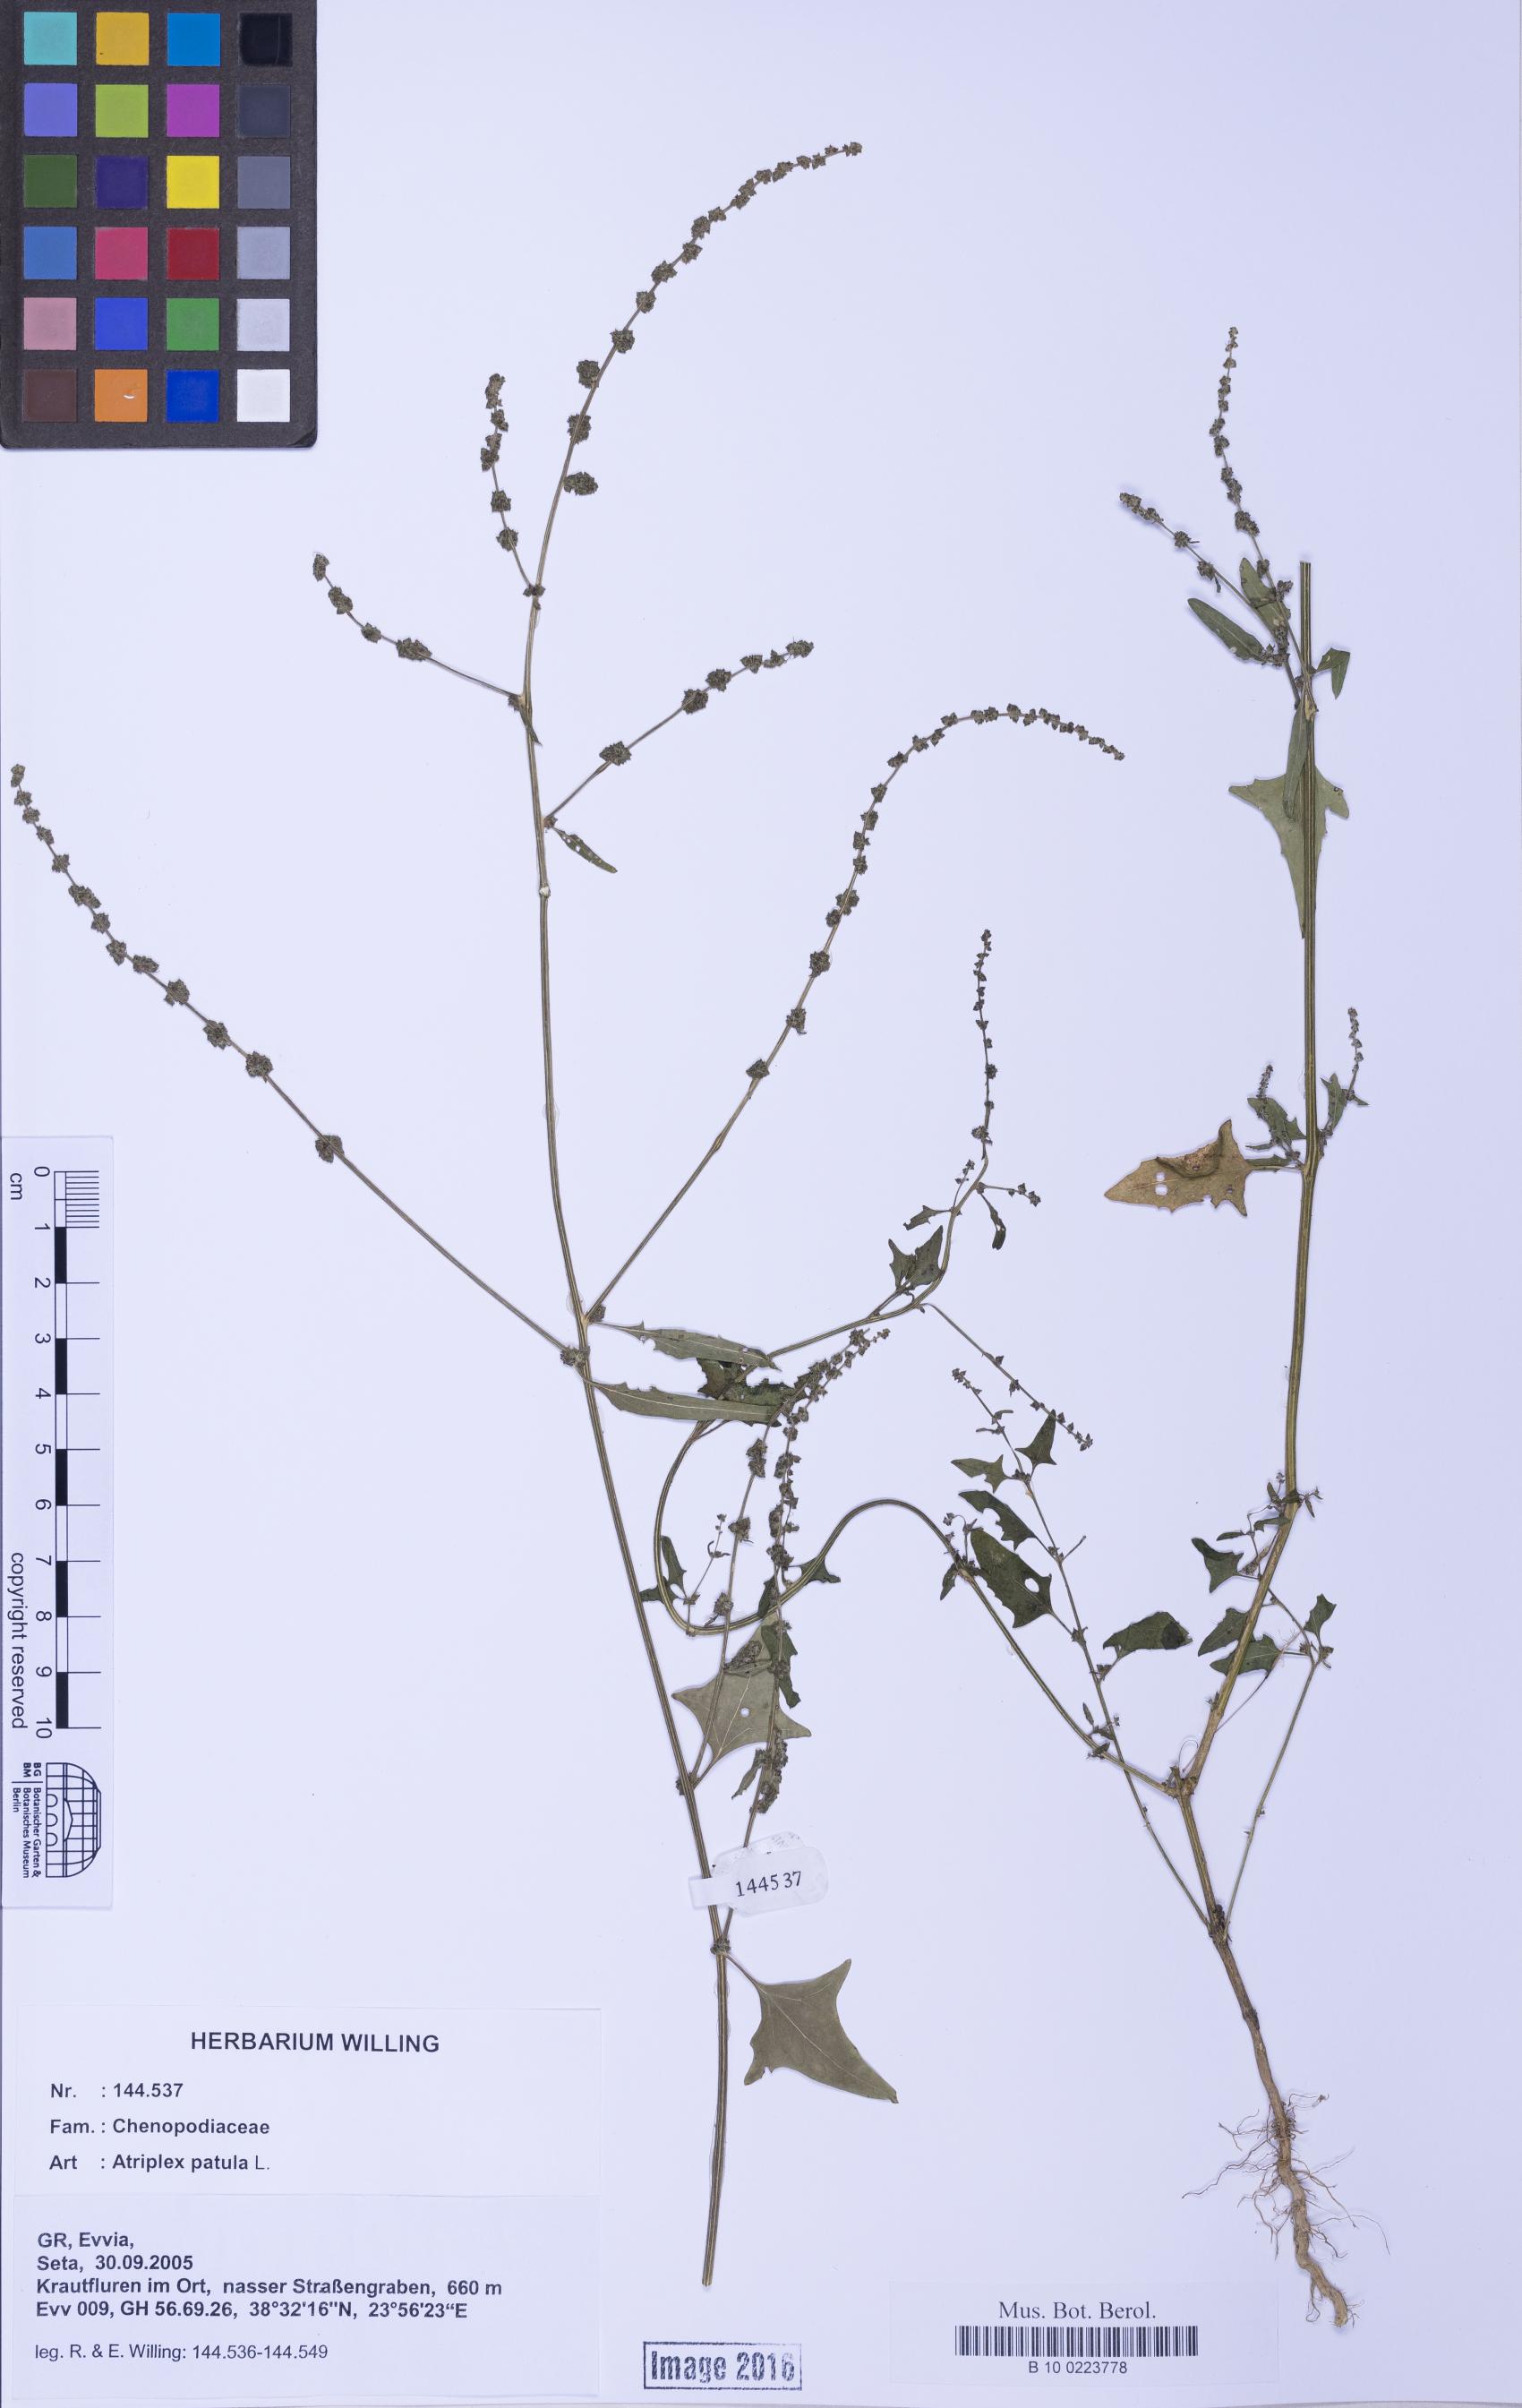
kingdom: Plantae
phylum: Tracheophyta
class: Magnoliopsida
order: Caryophyllales
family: Amaranthaceae
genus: Atriplex
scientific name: Atriplex prostrata
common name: Spear-leaved orache
